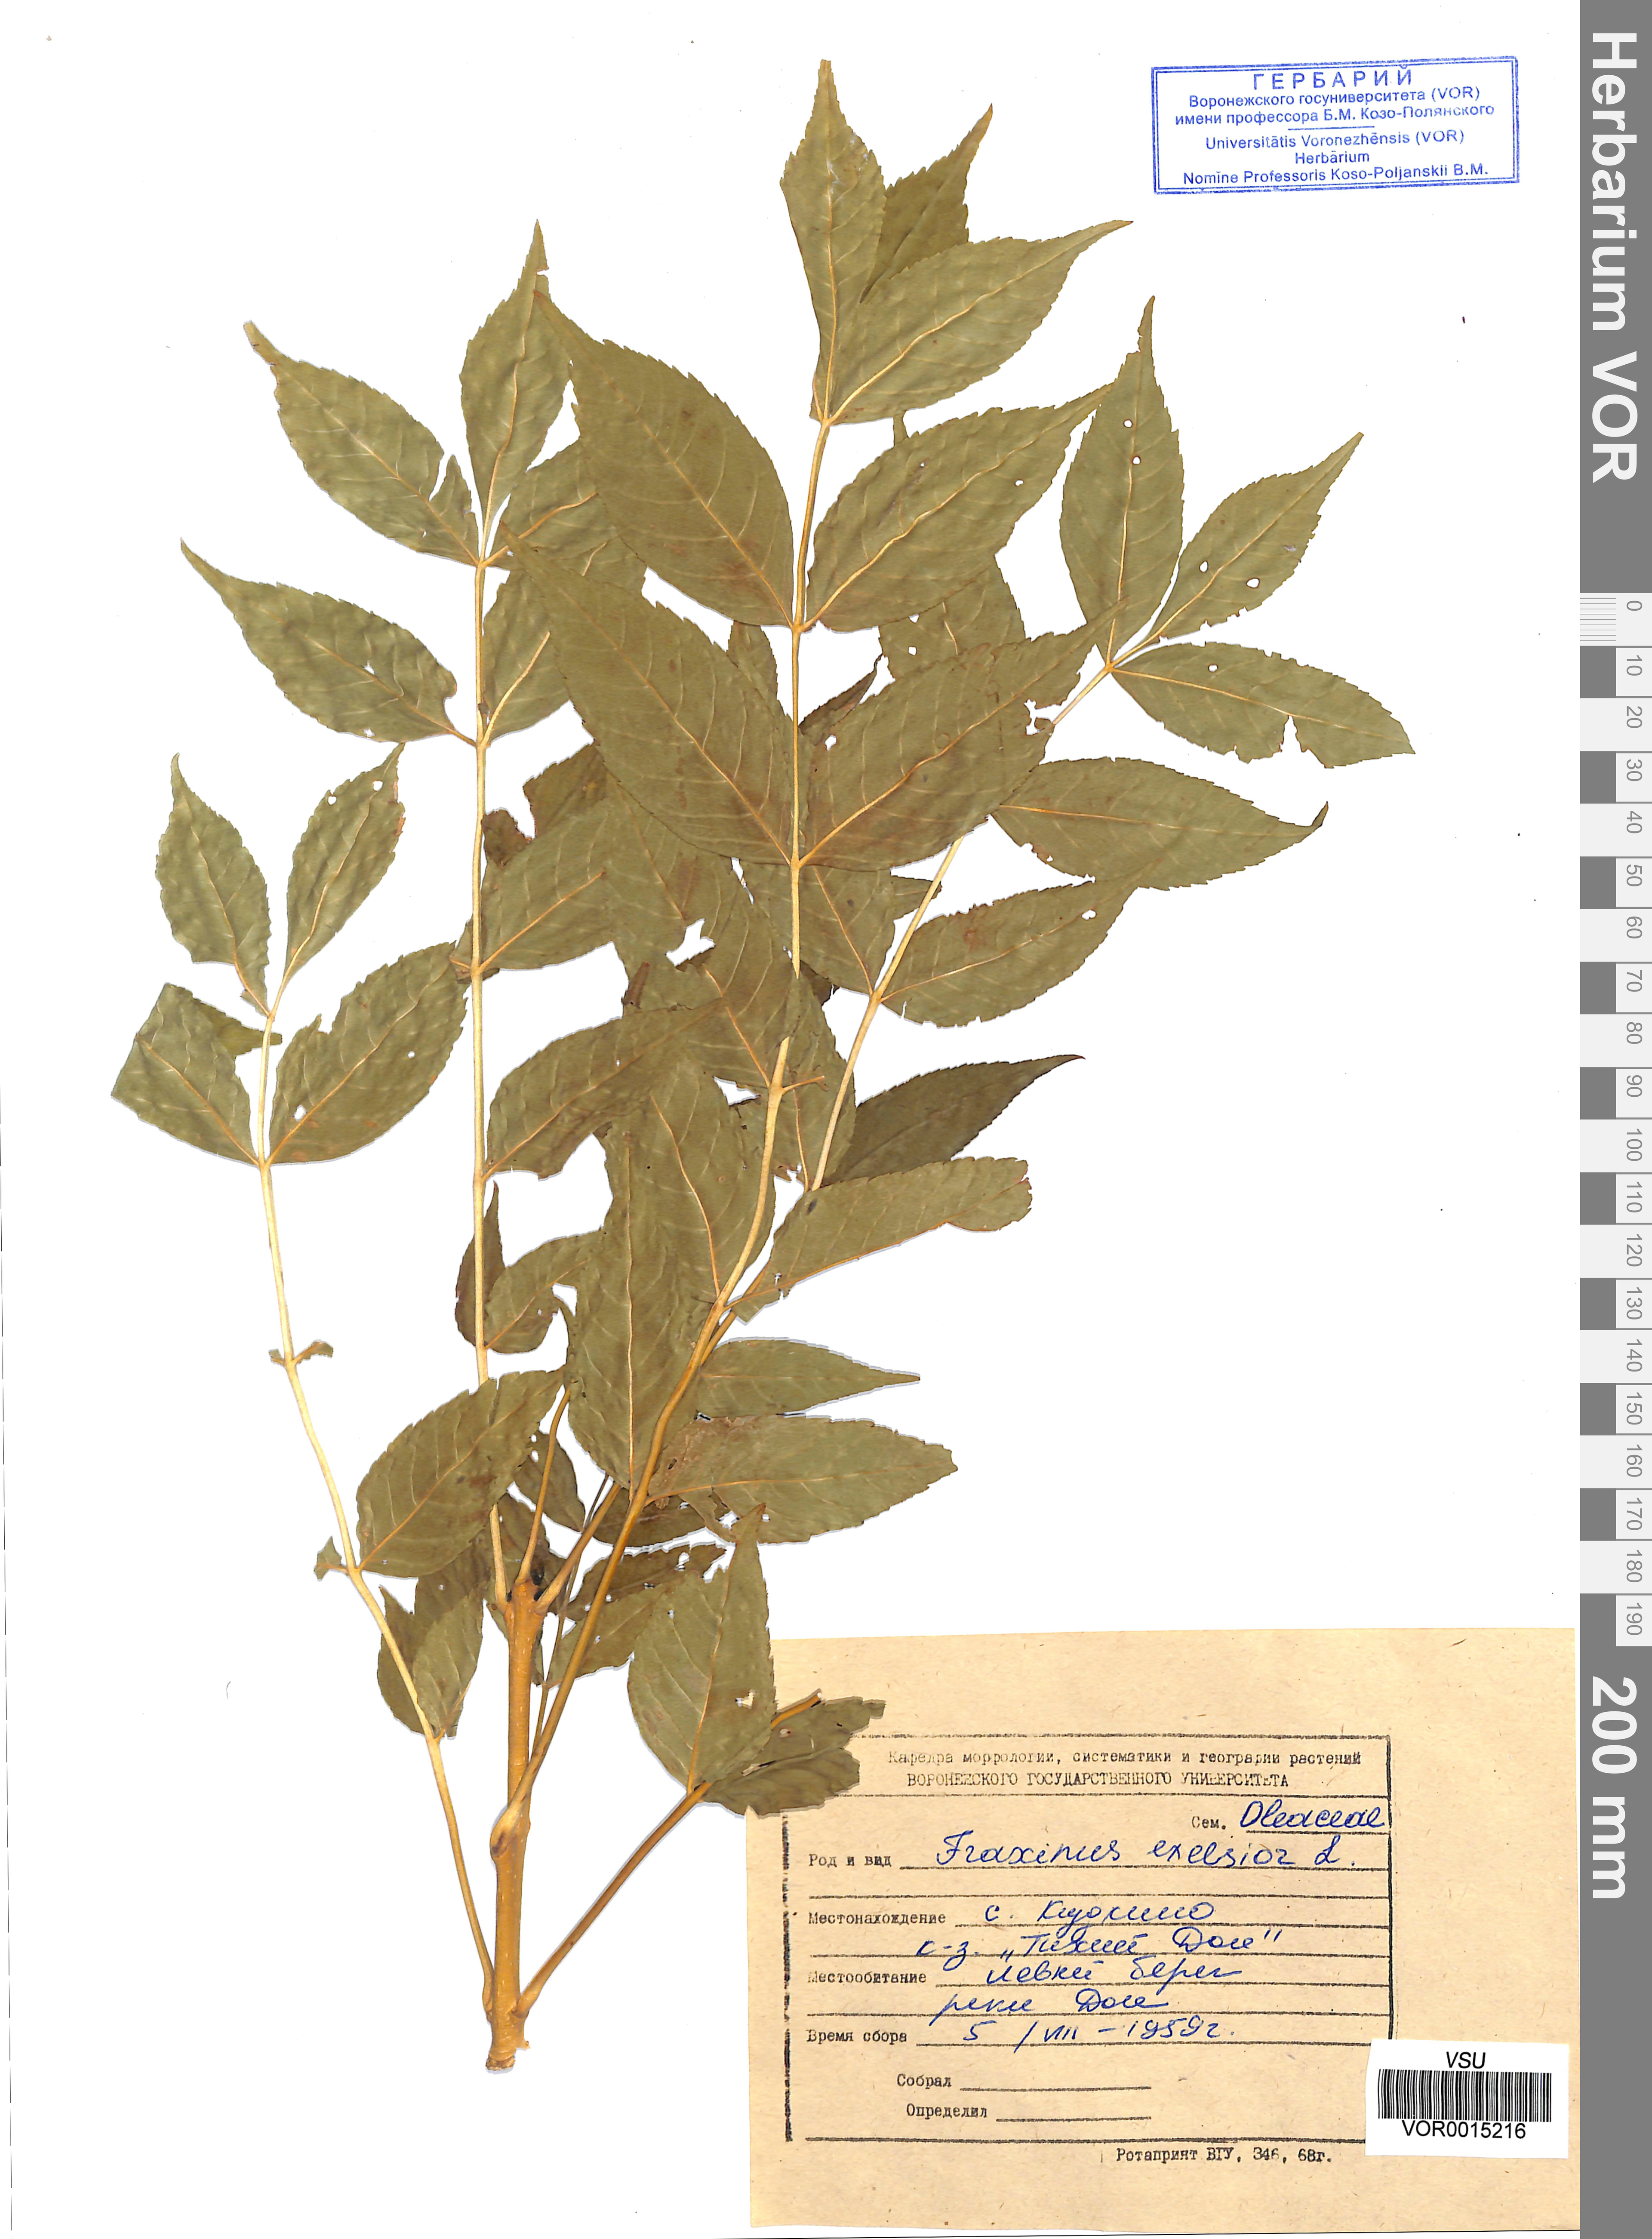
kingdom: Plantae
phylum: Tracheophyta
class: Magnoliopsida
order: Lamiales
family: Oleaceae
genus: Fraxinus
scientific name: Fraxinus excelsior
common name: European ash
